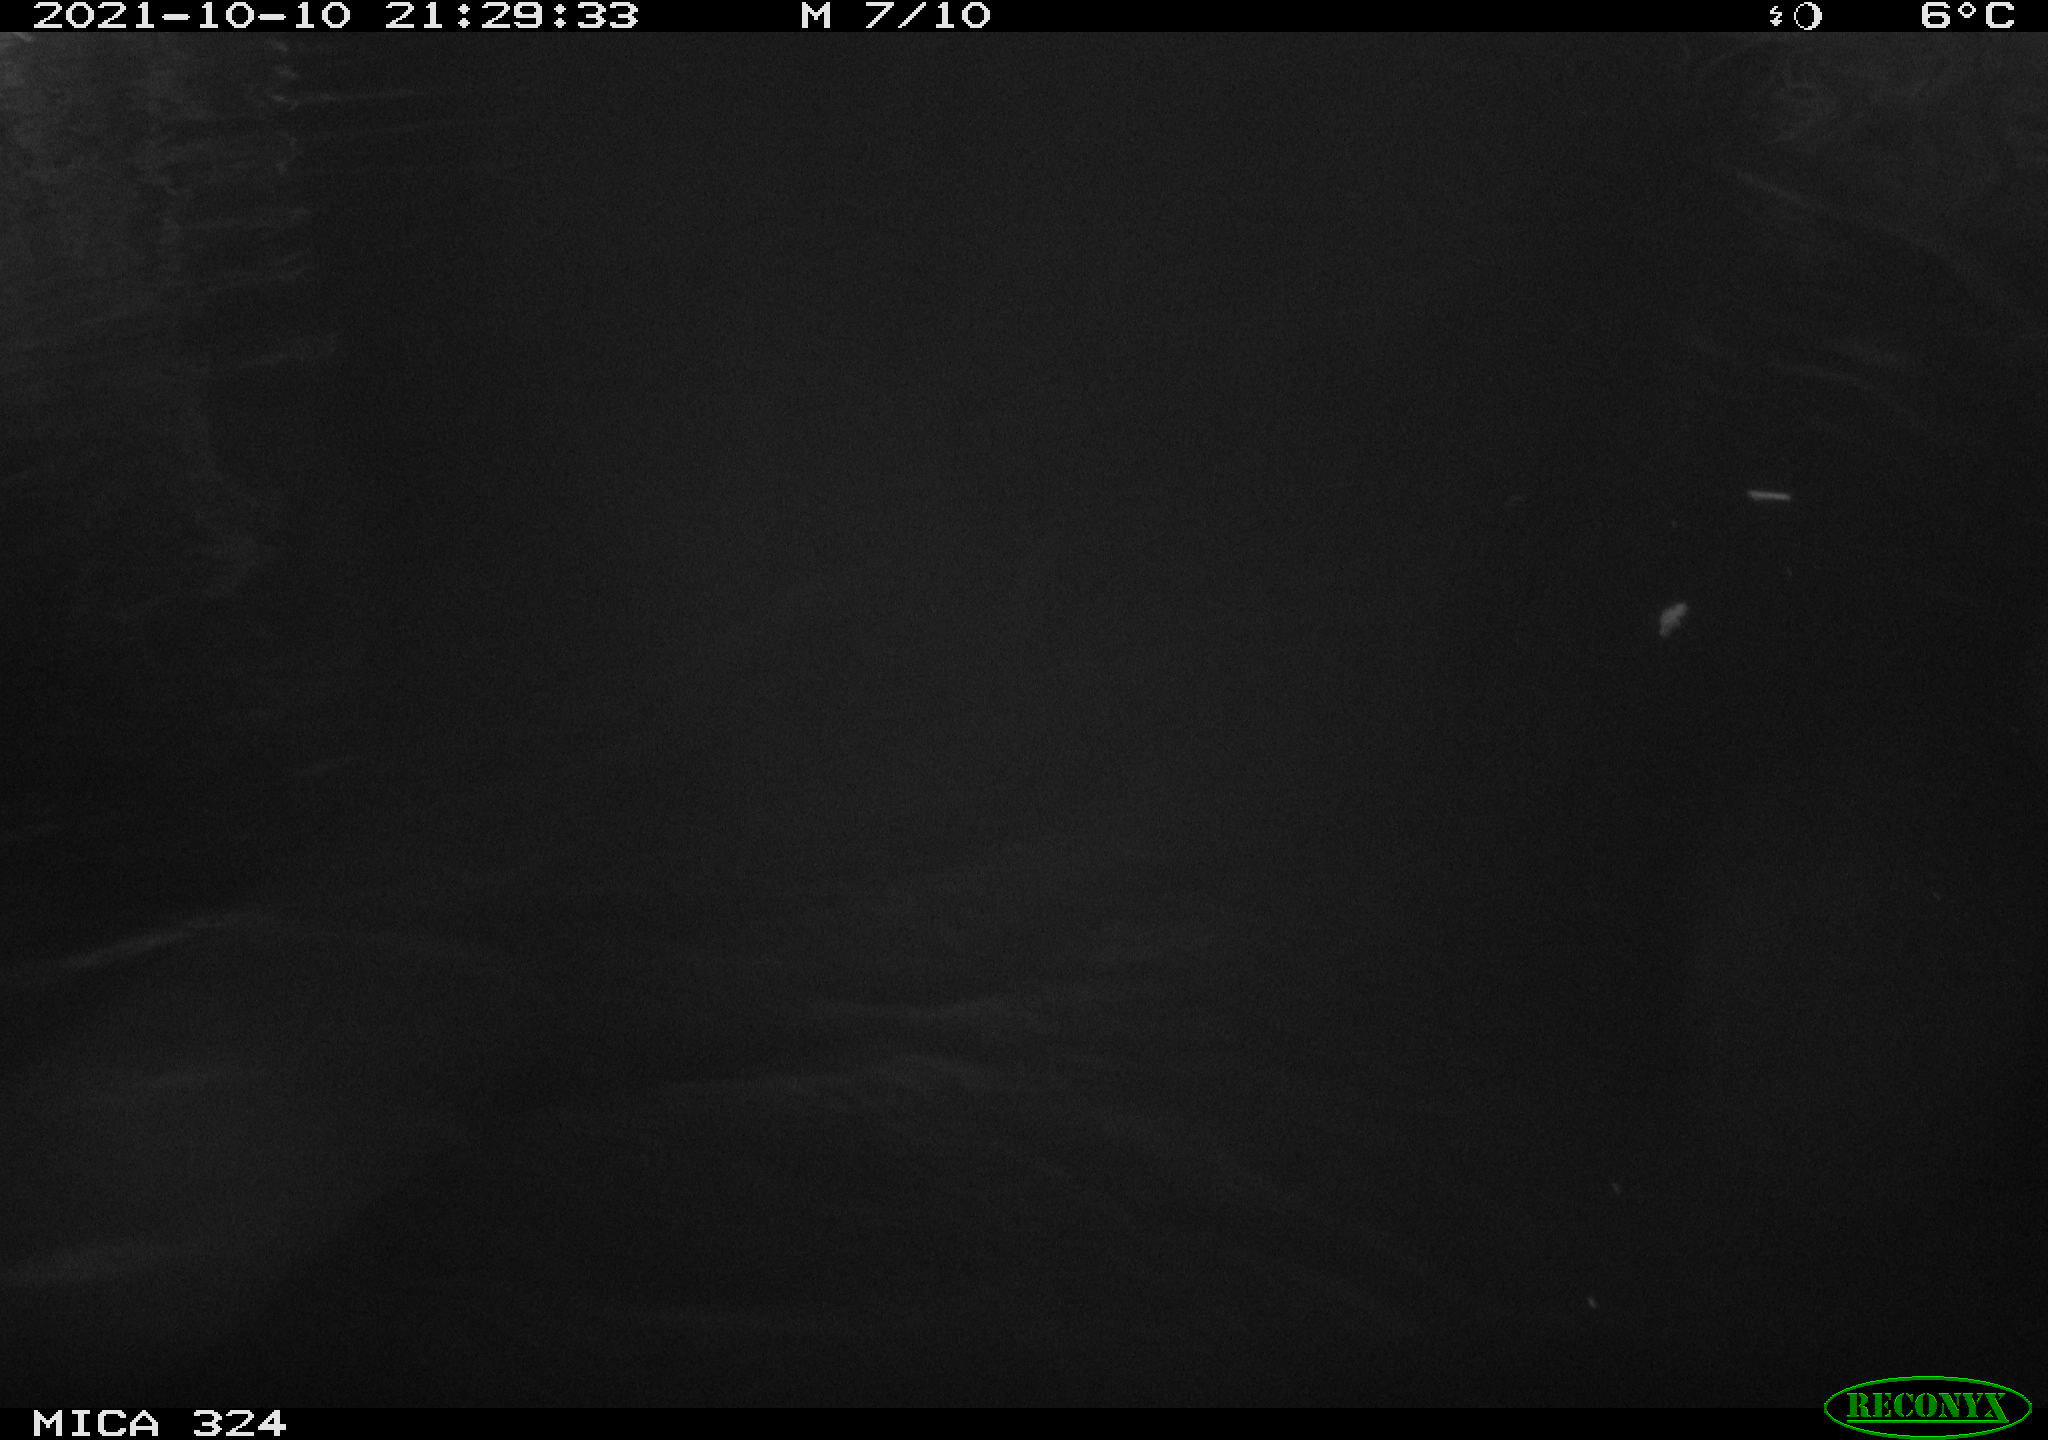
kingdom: Animalia
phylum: Chordata
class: Mammalia
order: Rodentia
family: Cricetidae
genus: Ondatra
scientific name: Ondatra zibethicus
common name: Muskrat
